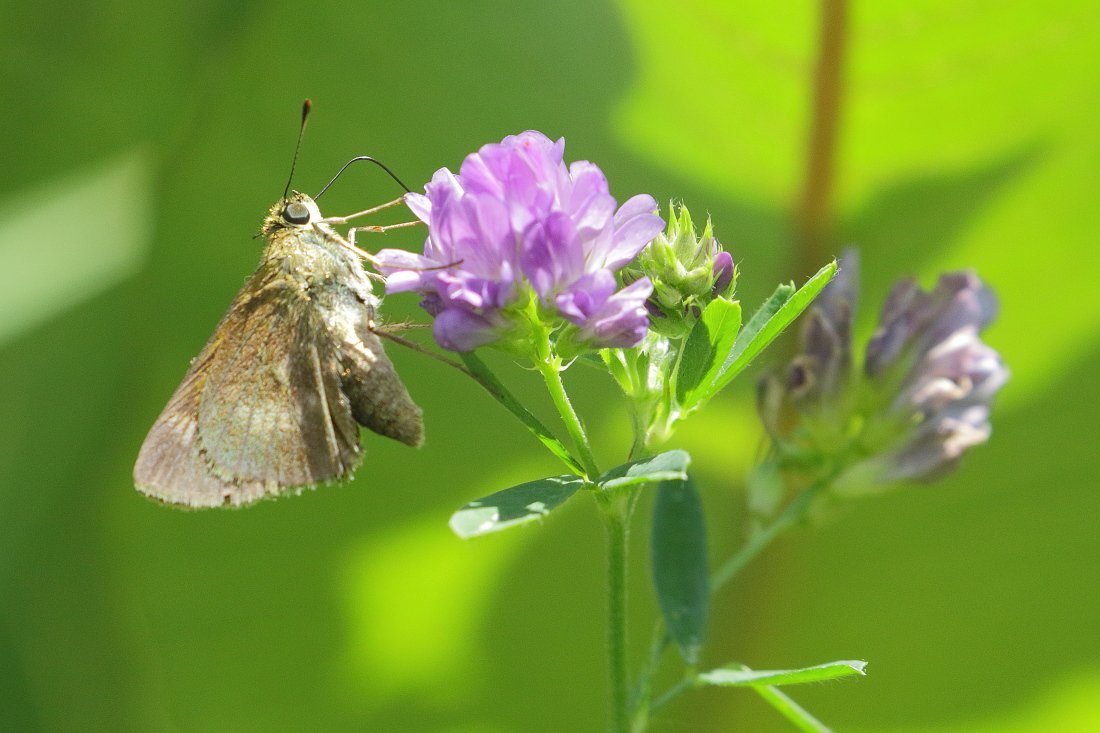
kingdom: Animalia
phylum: Arthropoda
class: Insecta
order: Lepidoptera
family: Hesperiidae
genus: Polites
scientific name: Polites egeremet
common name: Northern Broken-Dash
